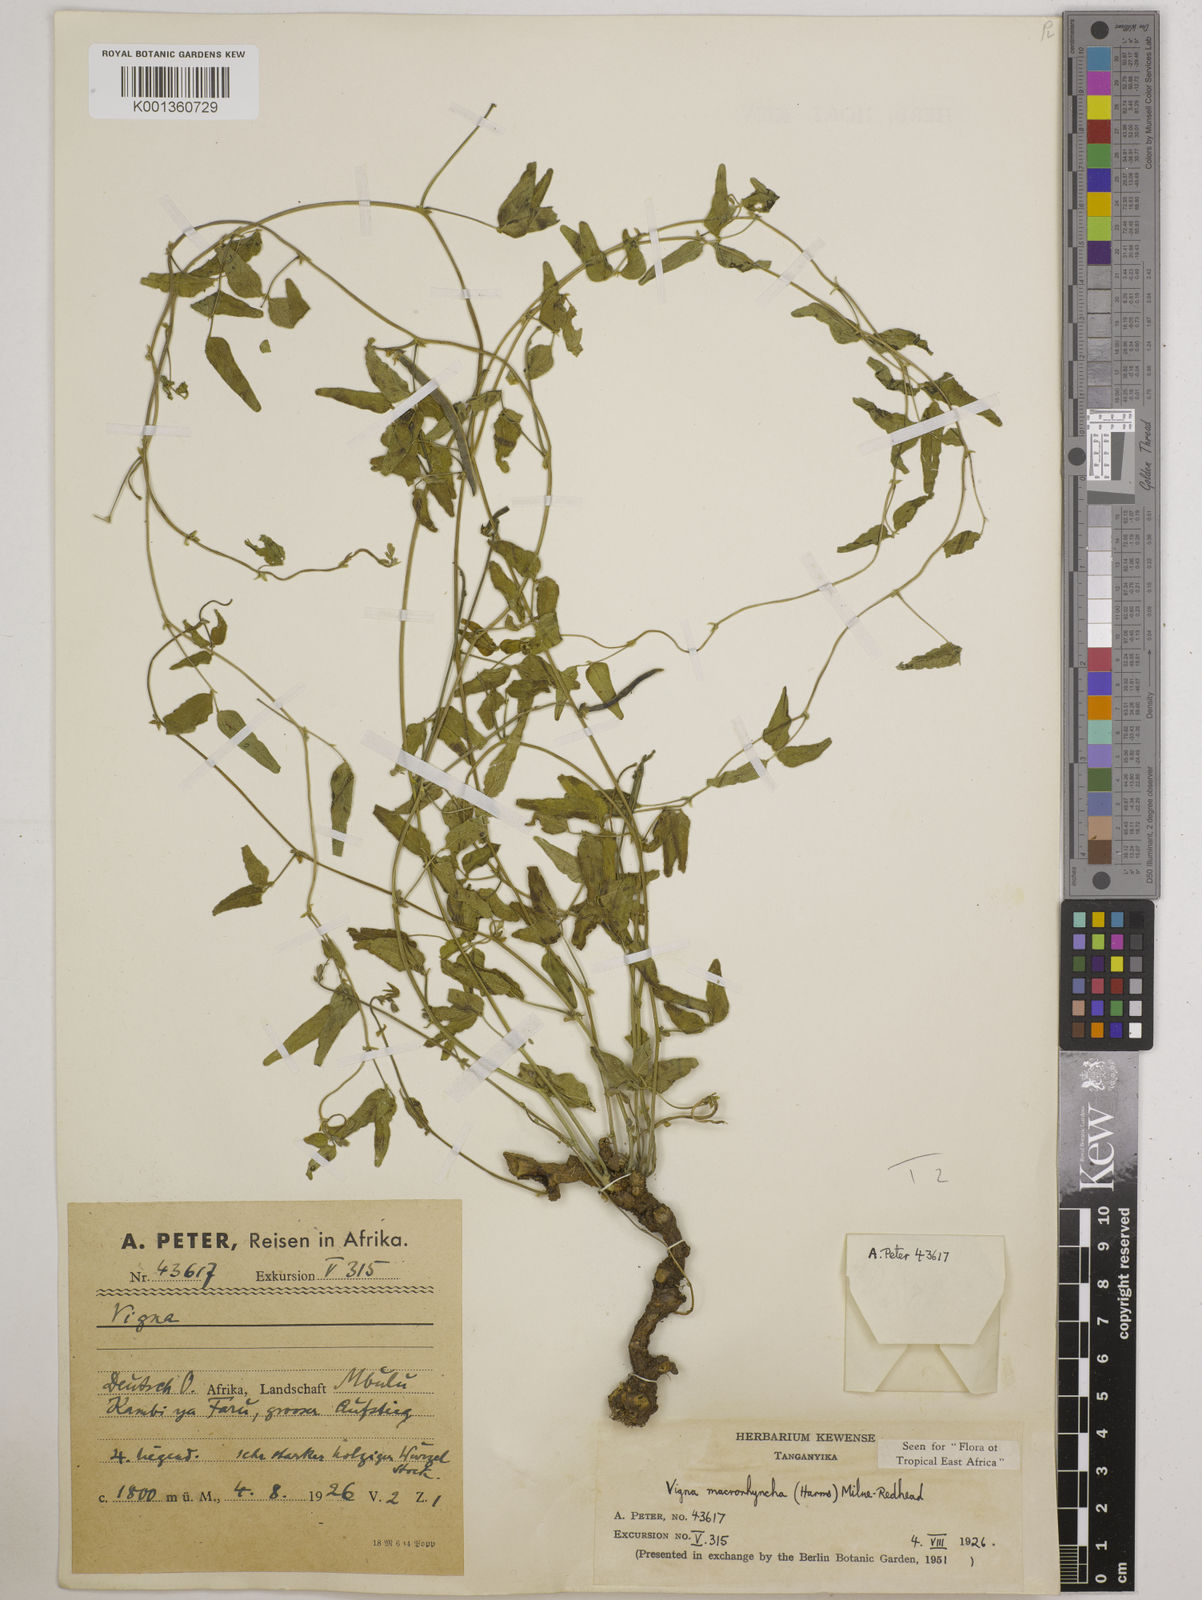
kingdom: Plantae
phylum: Tracheophyta
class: Magnoliopsida
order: Fabales
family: Fabaceae
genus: Wajira
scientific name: Wajira grahamiana
